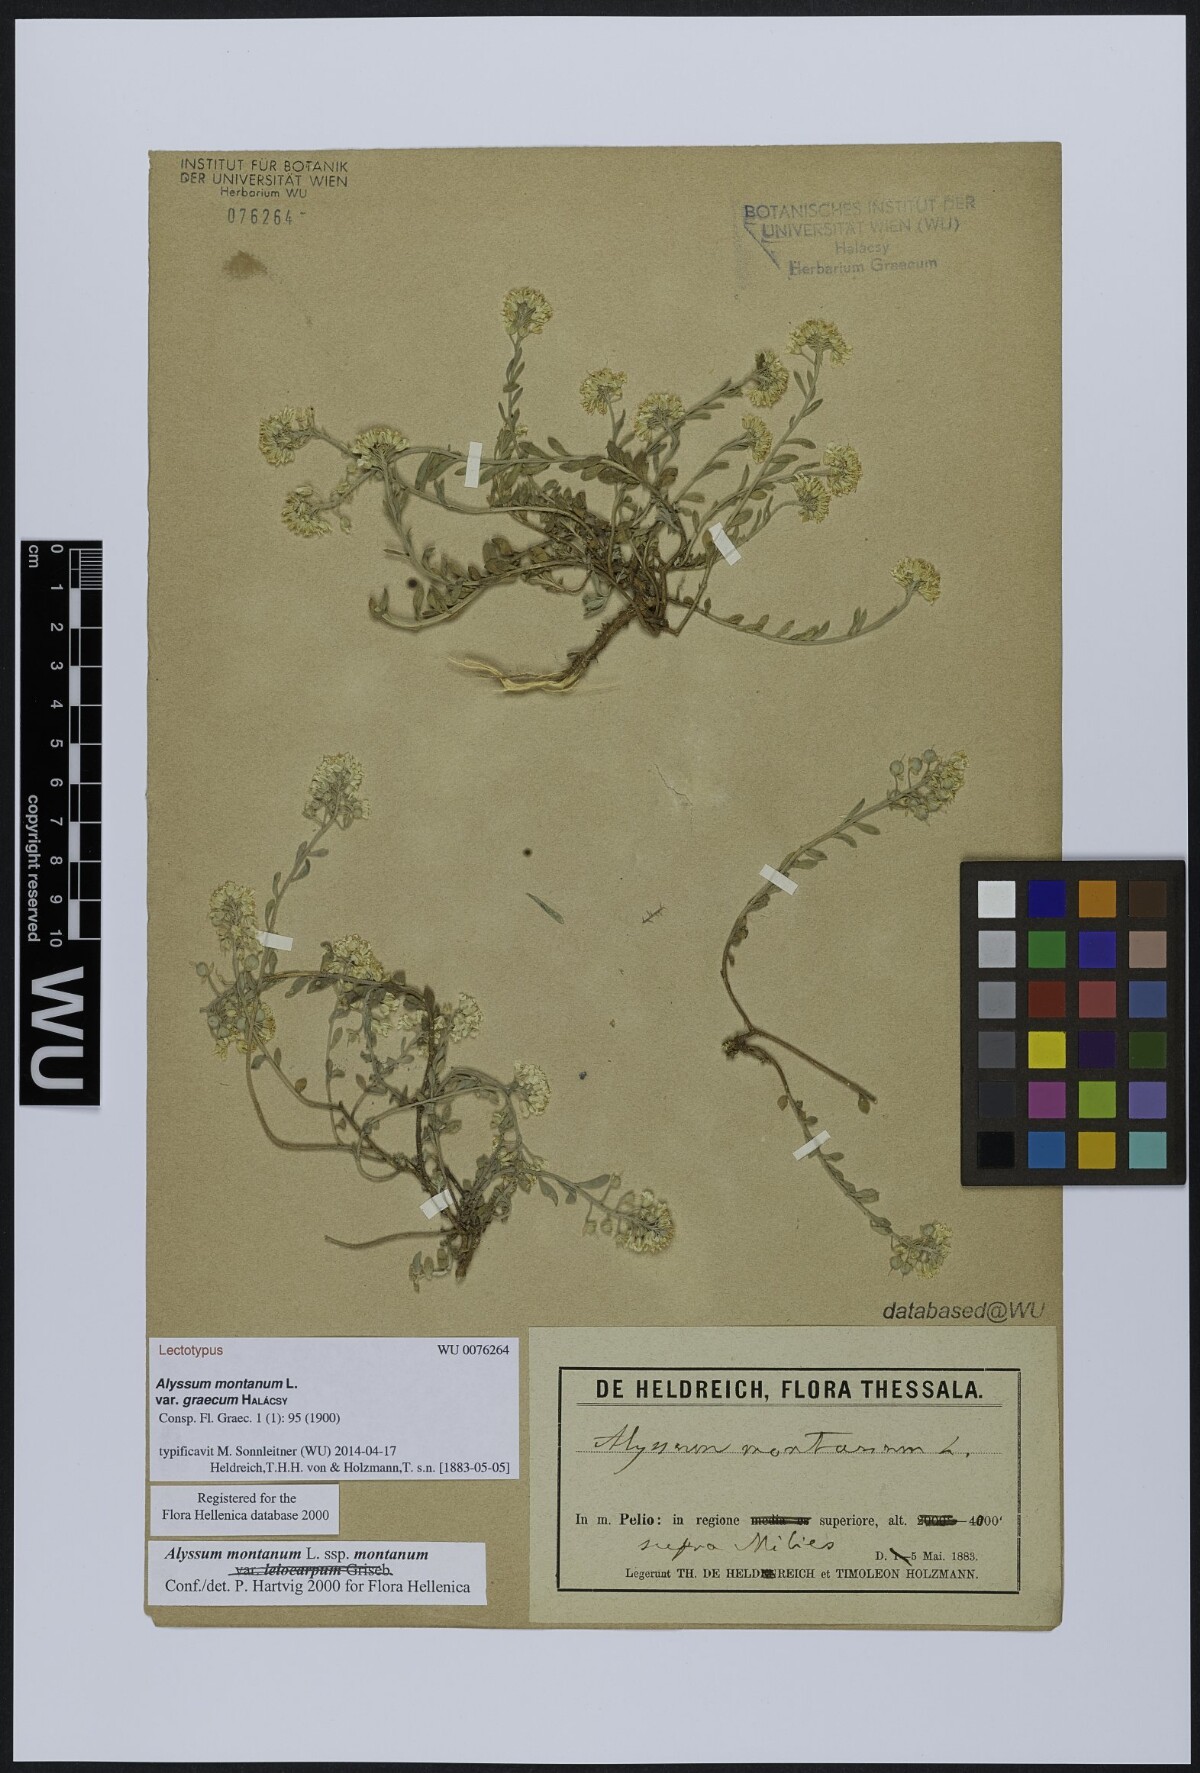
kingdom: Plantae
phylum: Tracheophyta
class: Magnoliopsida
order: Brassicales
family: Brassicaceae
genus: Alyssum
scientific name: Alyssum montanum
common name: Mountain alison
